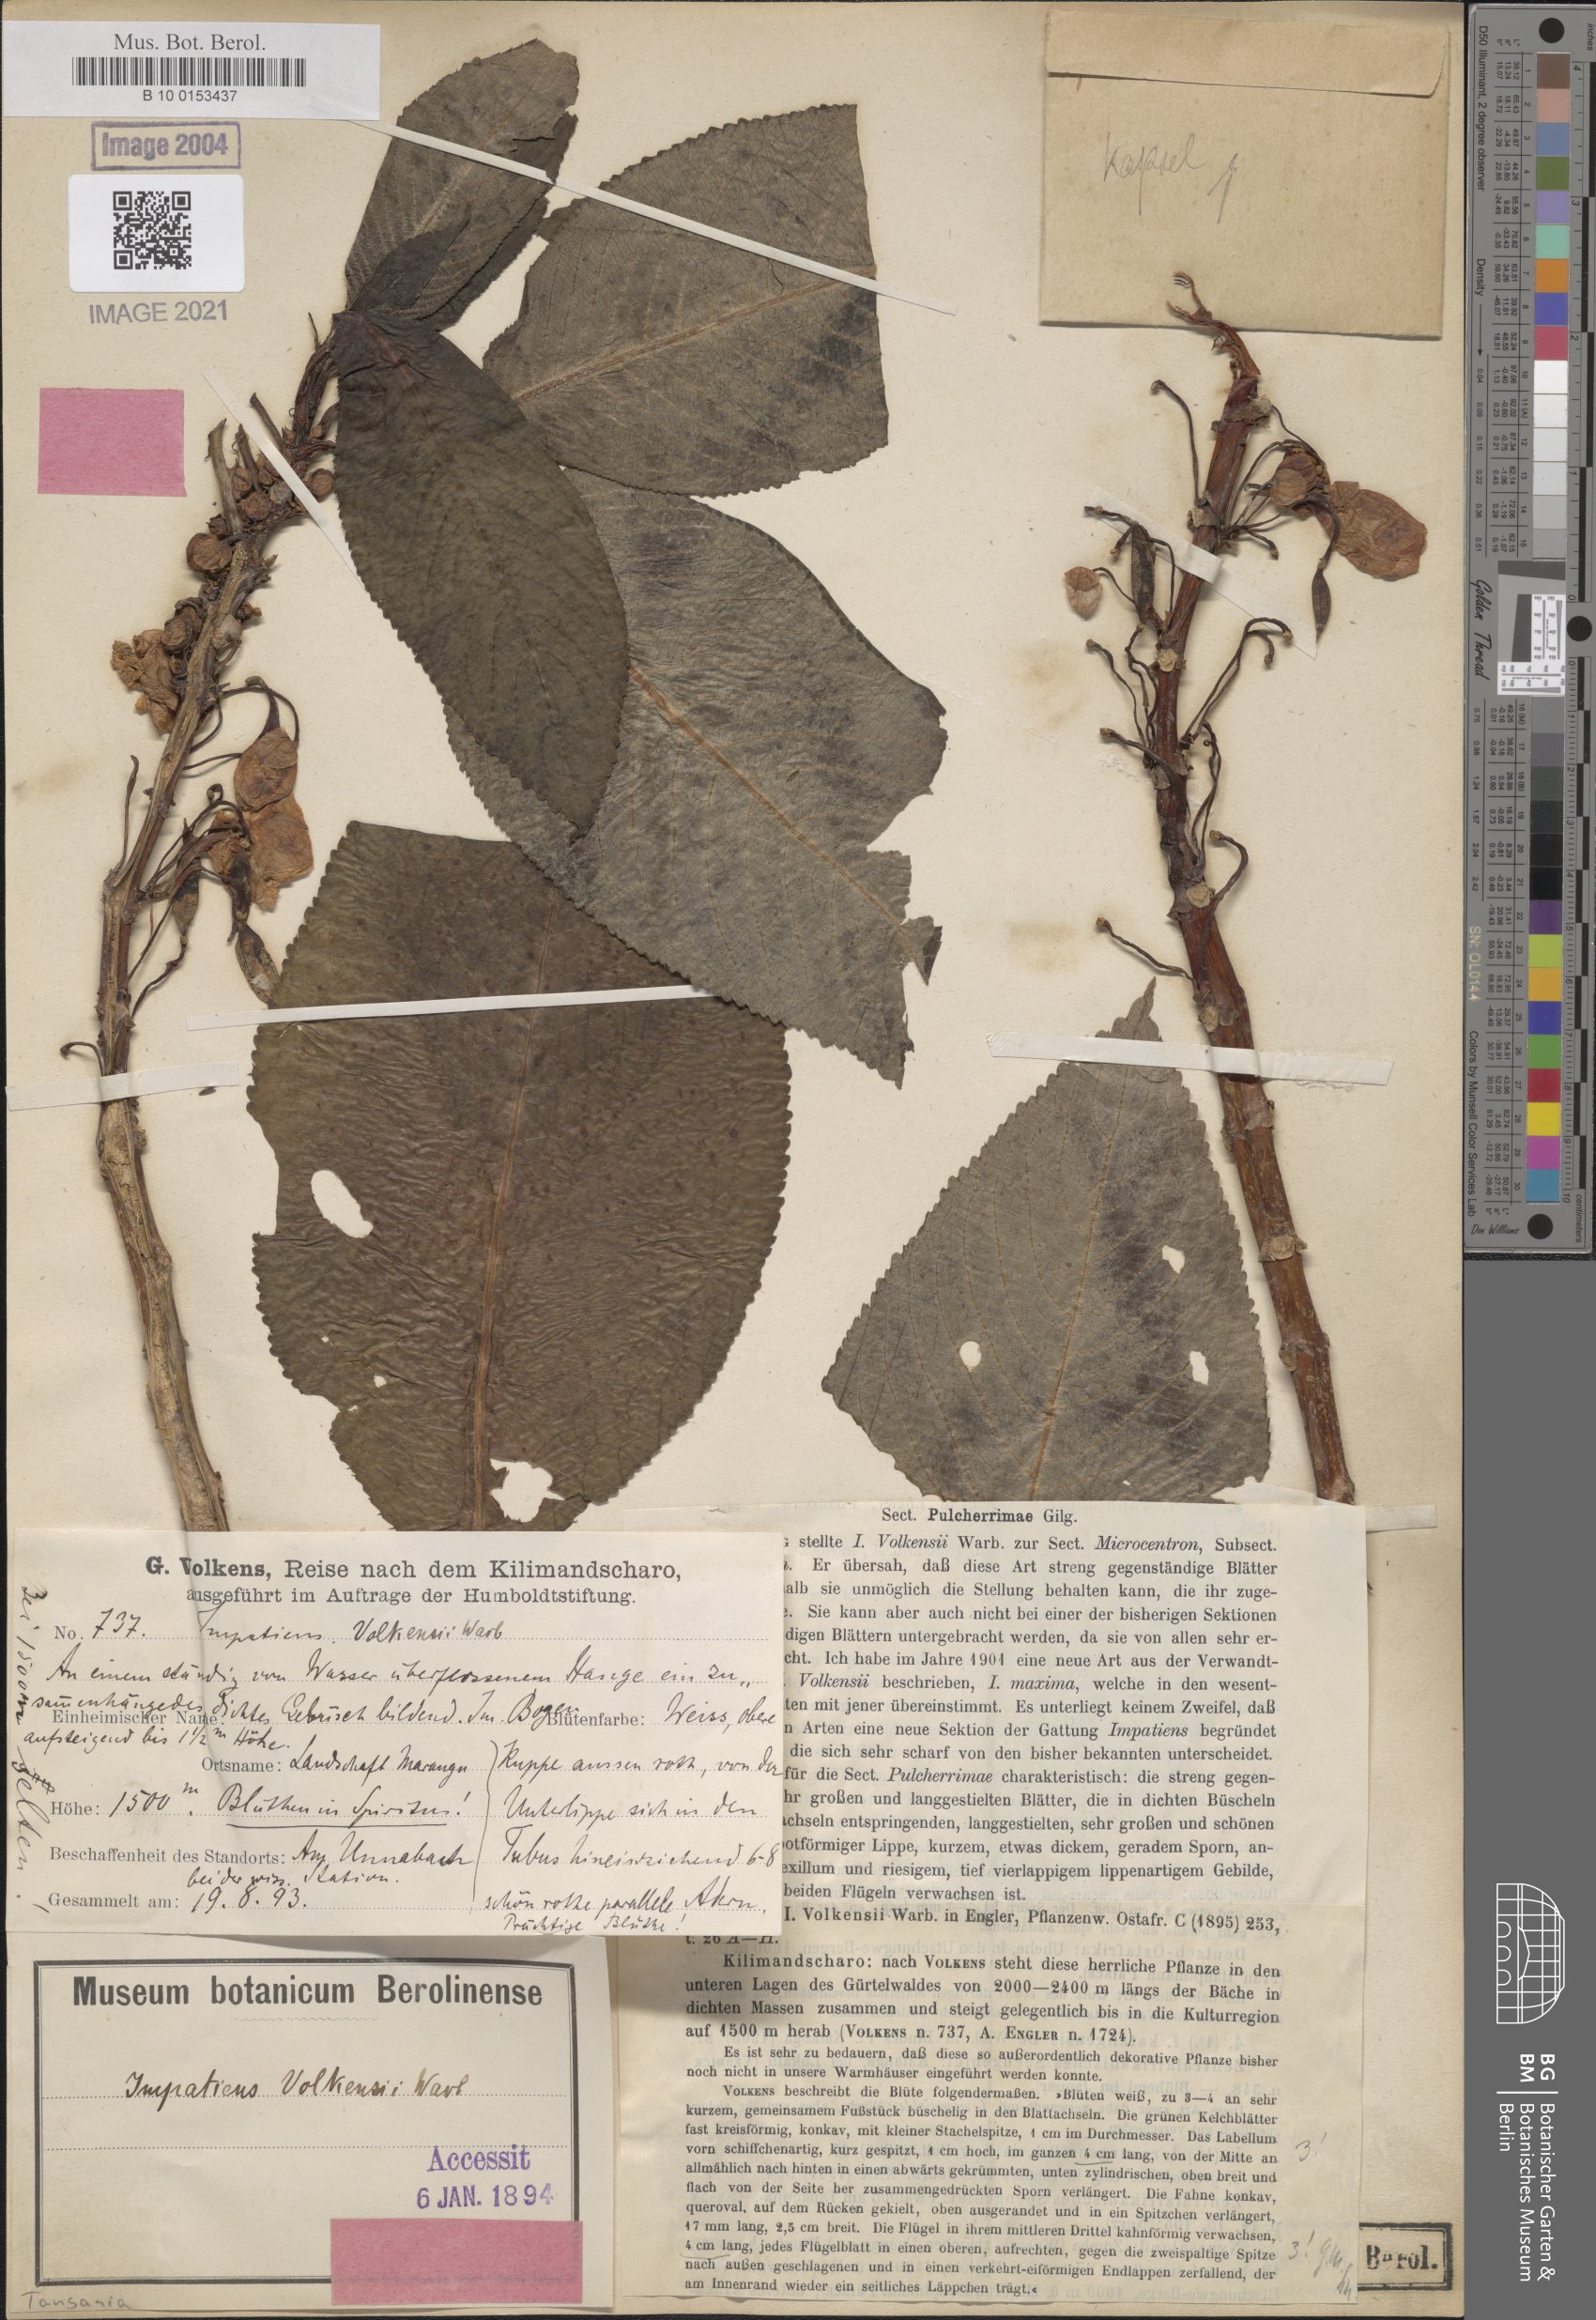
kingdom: Plantae
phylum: Tracheophyta
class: Magnoliopsida
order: Ericales
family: Balsaminaceae
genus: Impatiens
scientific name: Impatiens volkensii
